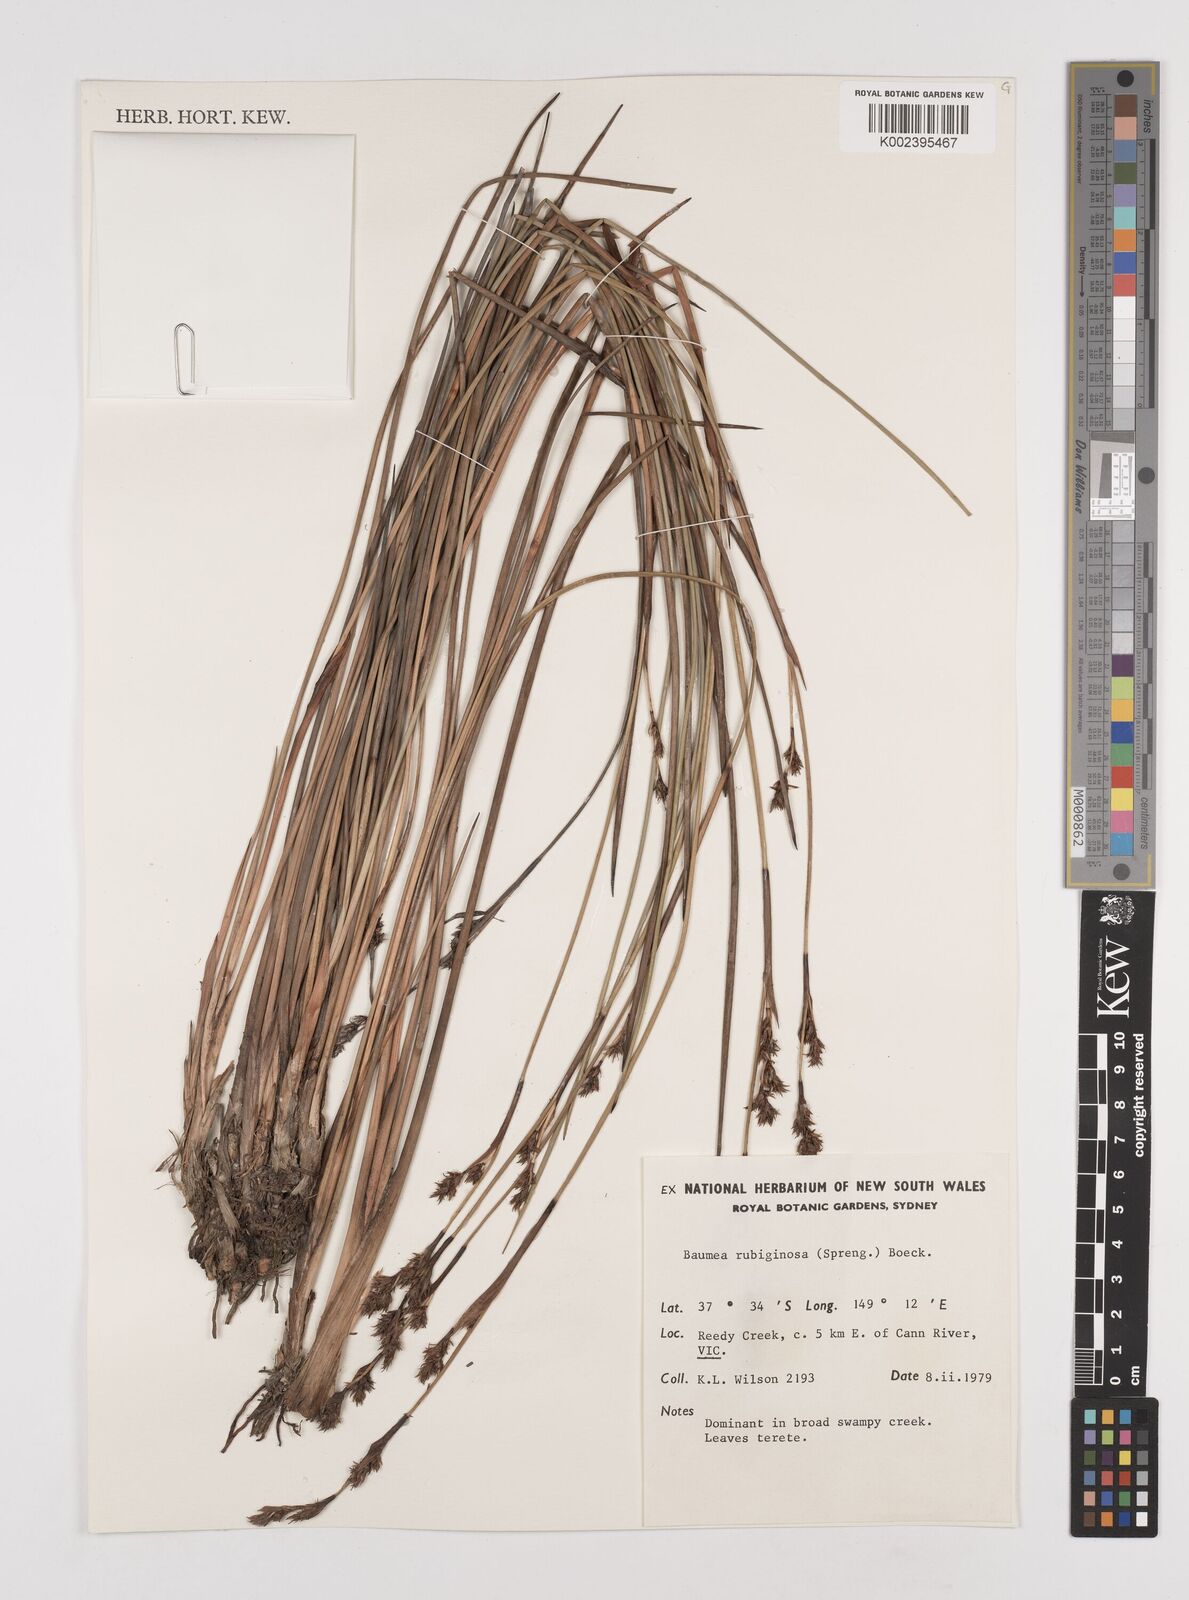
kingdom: Plantae
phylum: Tracheophyta
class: Liliopsida
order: Poales
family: Cyperaceae
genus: Machaerina
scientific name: Machaerina
